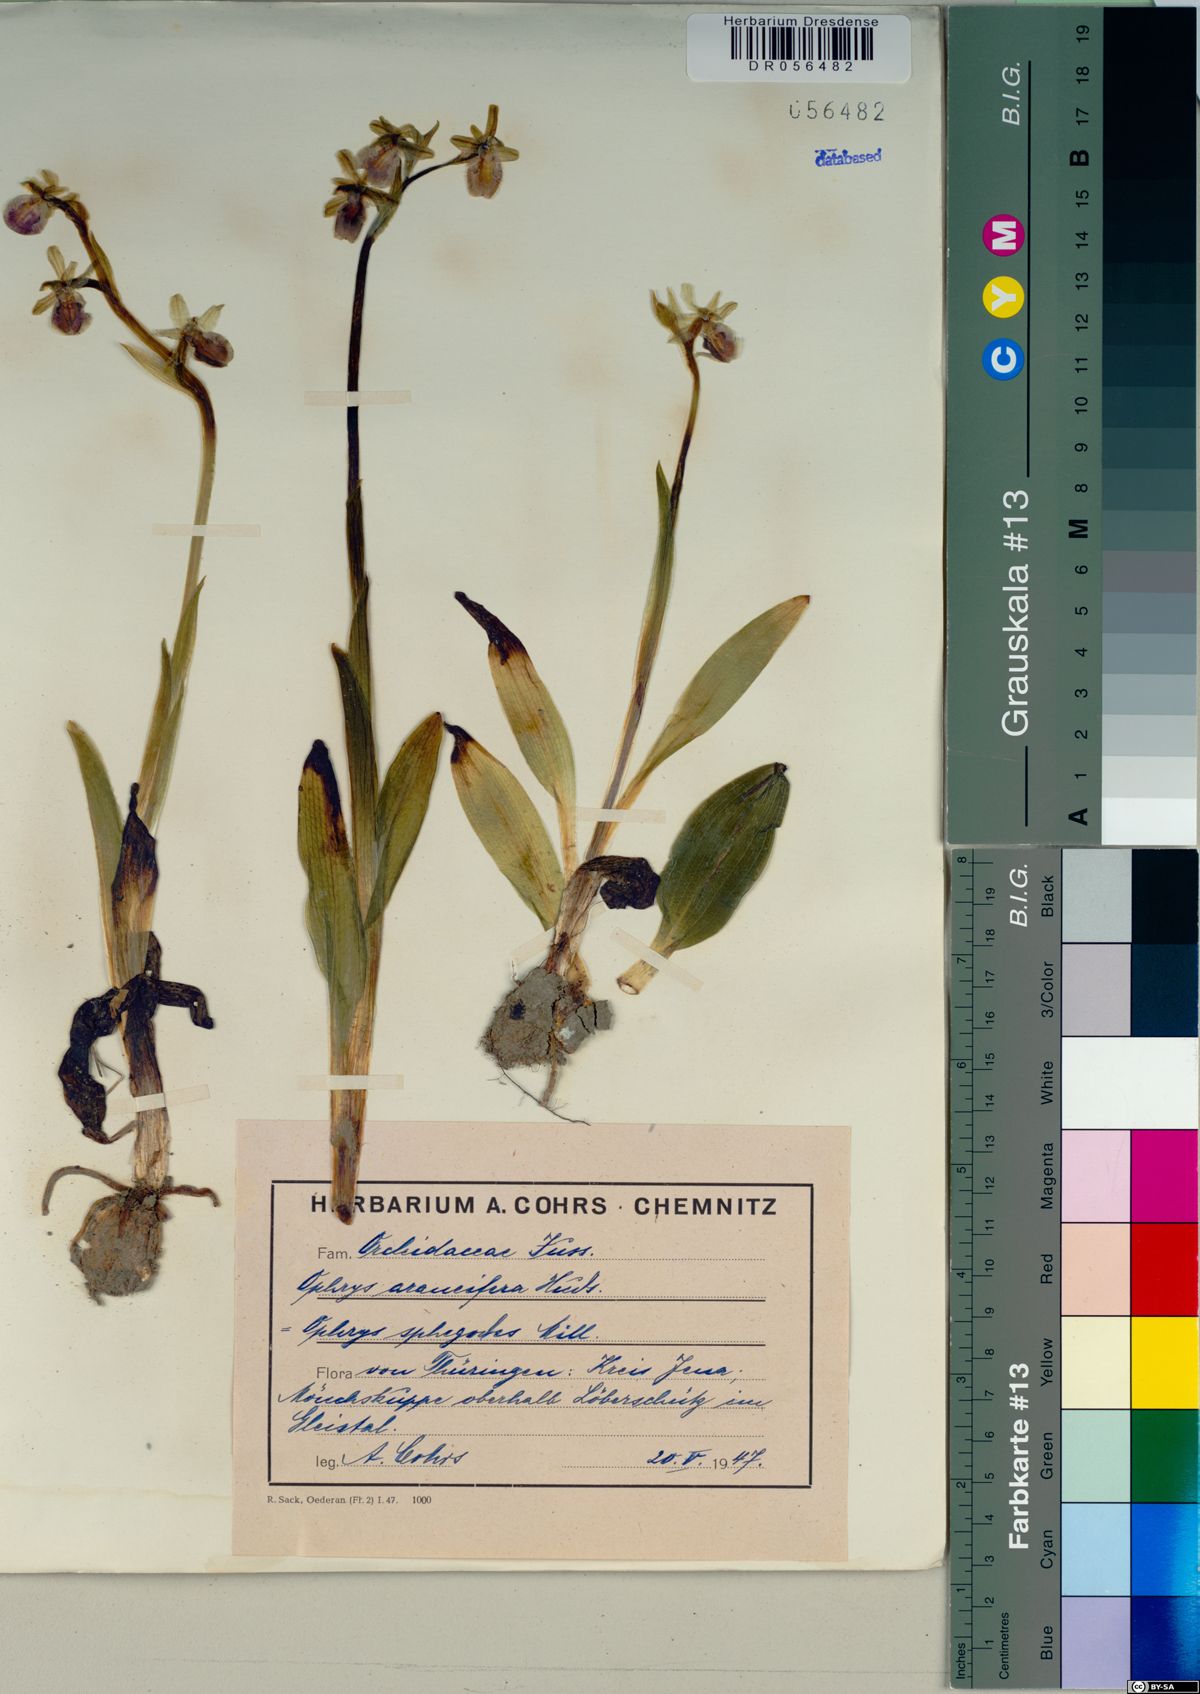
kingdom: Plantae
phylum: Tracheophyta
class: Liliopsida
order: Asparagales
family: Orchidaceae
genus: Ophrys
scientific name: Ophrys sphegodes
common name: Early spider-orchid
